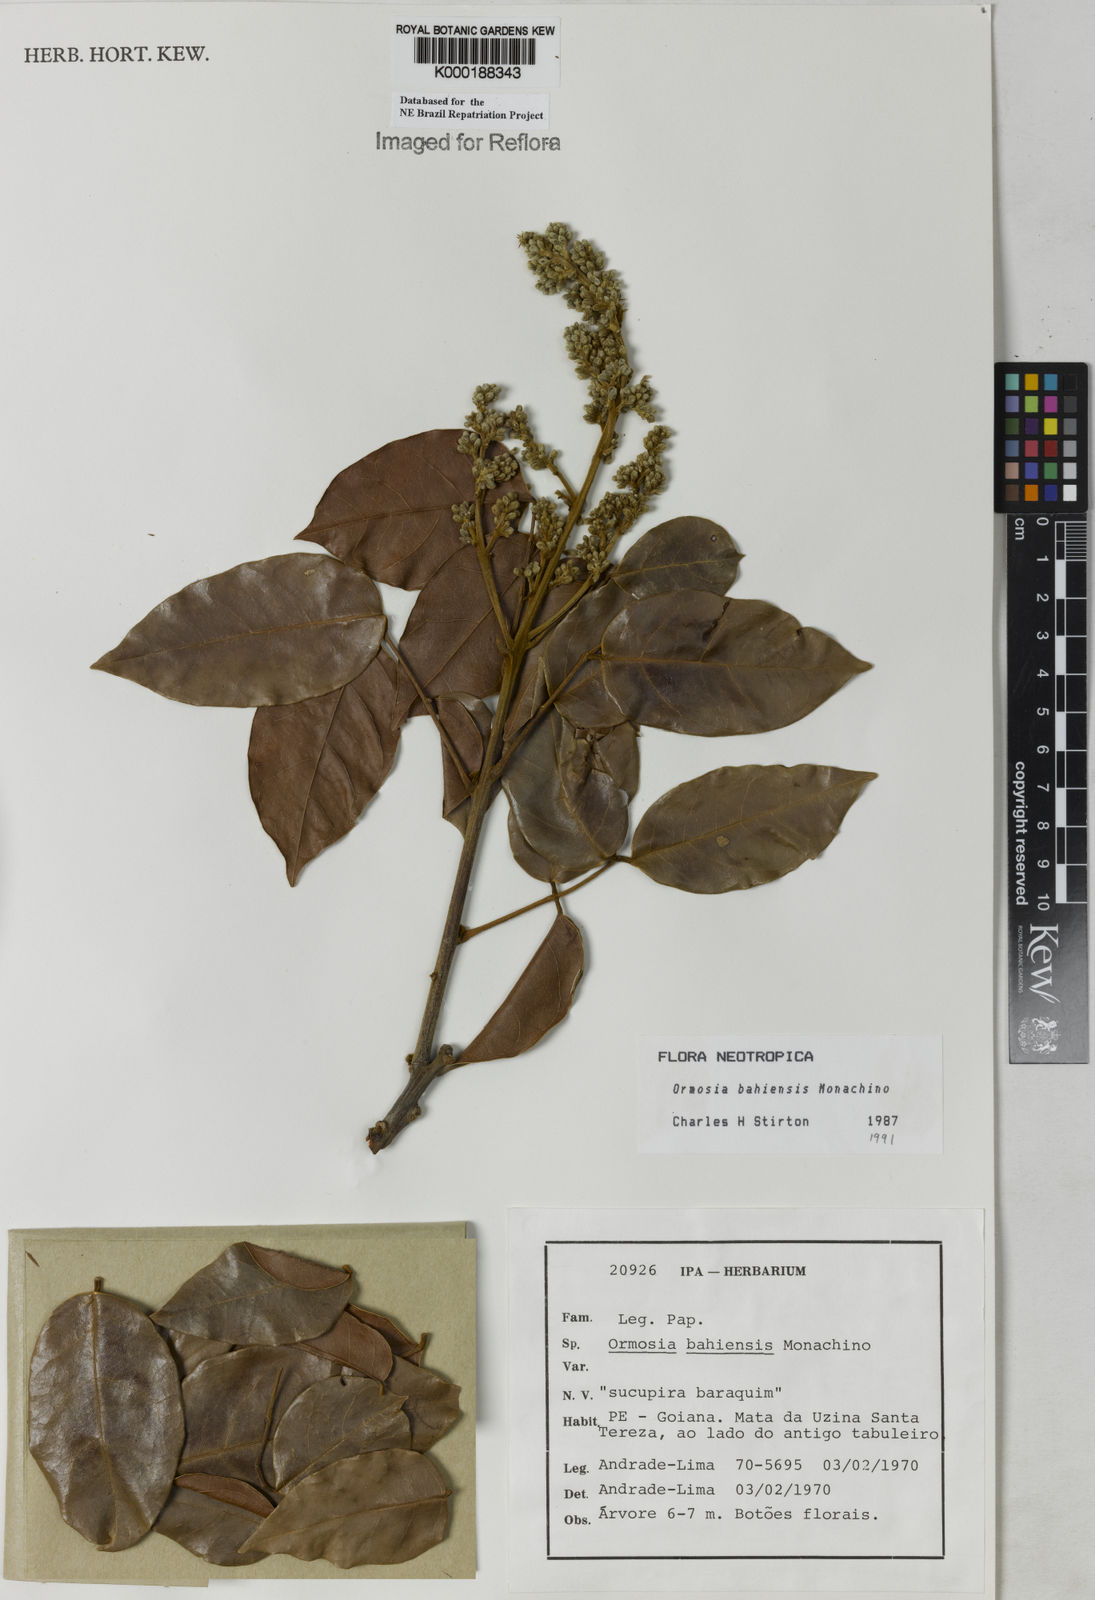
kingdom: Plantae
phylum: Tracheophyta
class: Magnoliopsida
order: Fabales
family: Fabaceae
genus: Ormosia
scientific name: Ormosia bahiensis
